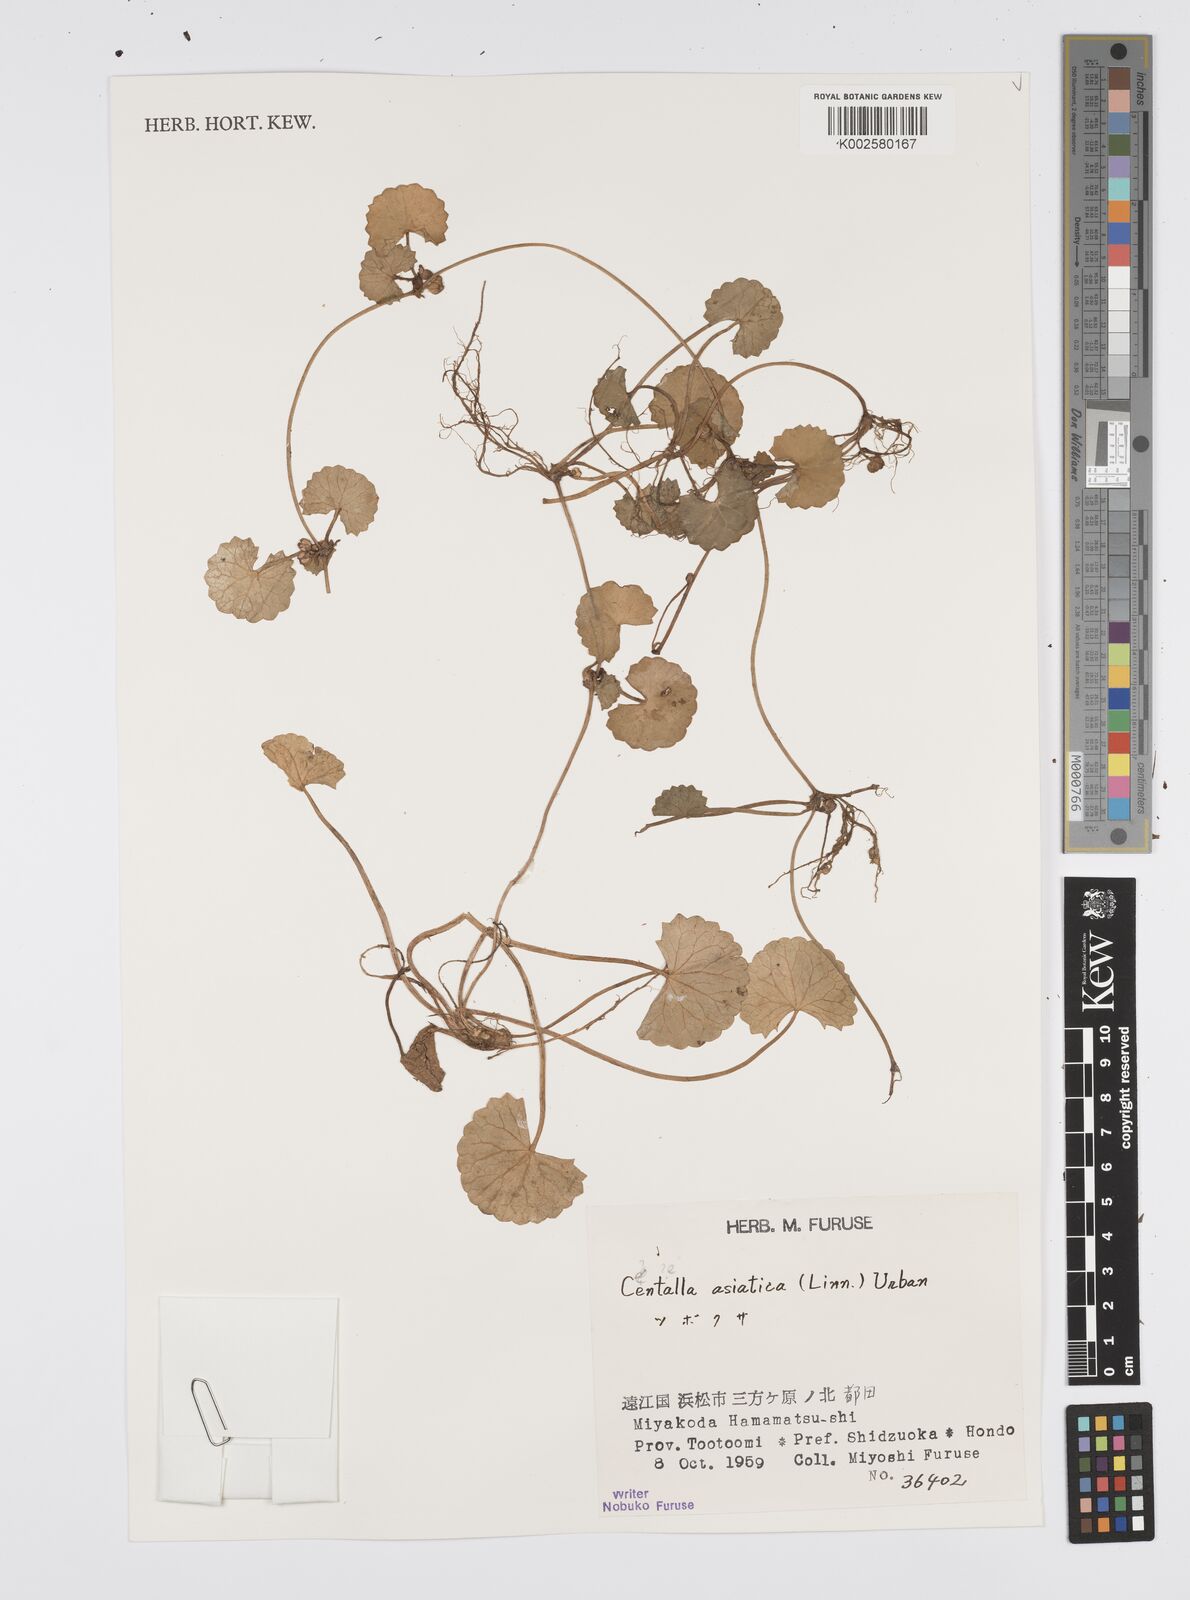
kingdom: Plantae
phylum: Tracheophyta
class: Magnoliopsida
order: Apiales
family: Apiaceae
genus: Centella
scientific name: Centella asiatica
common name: Spadeleaf
